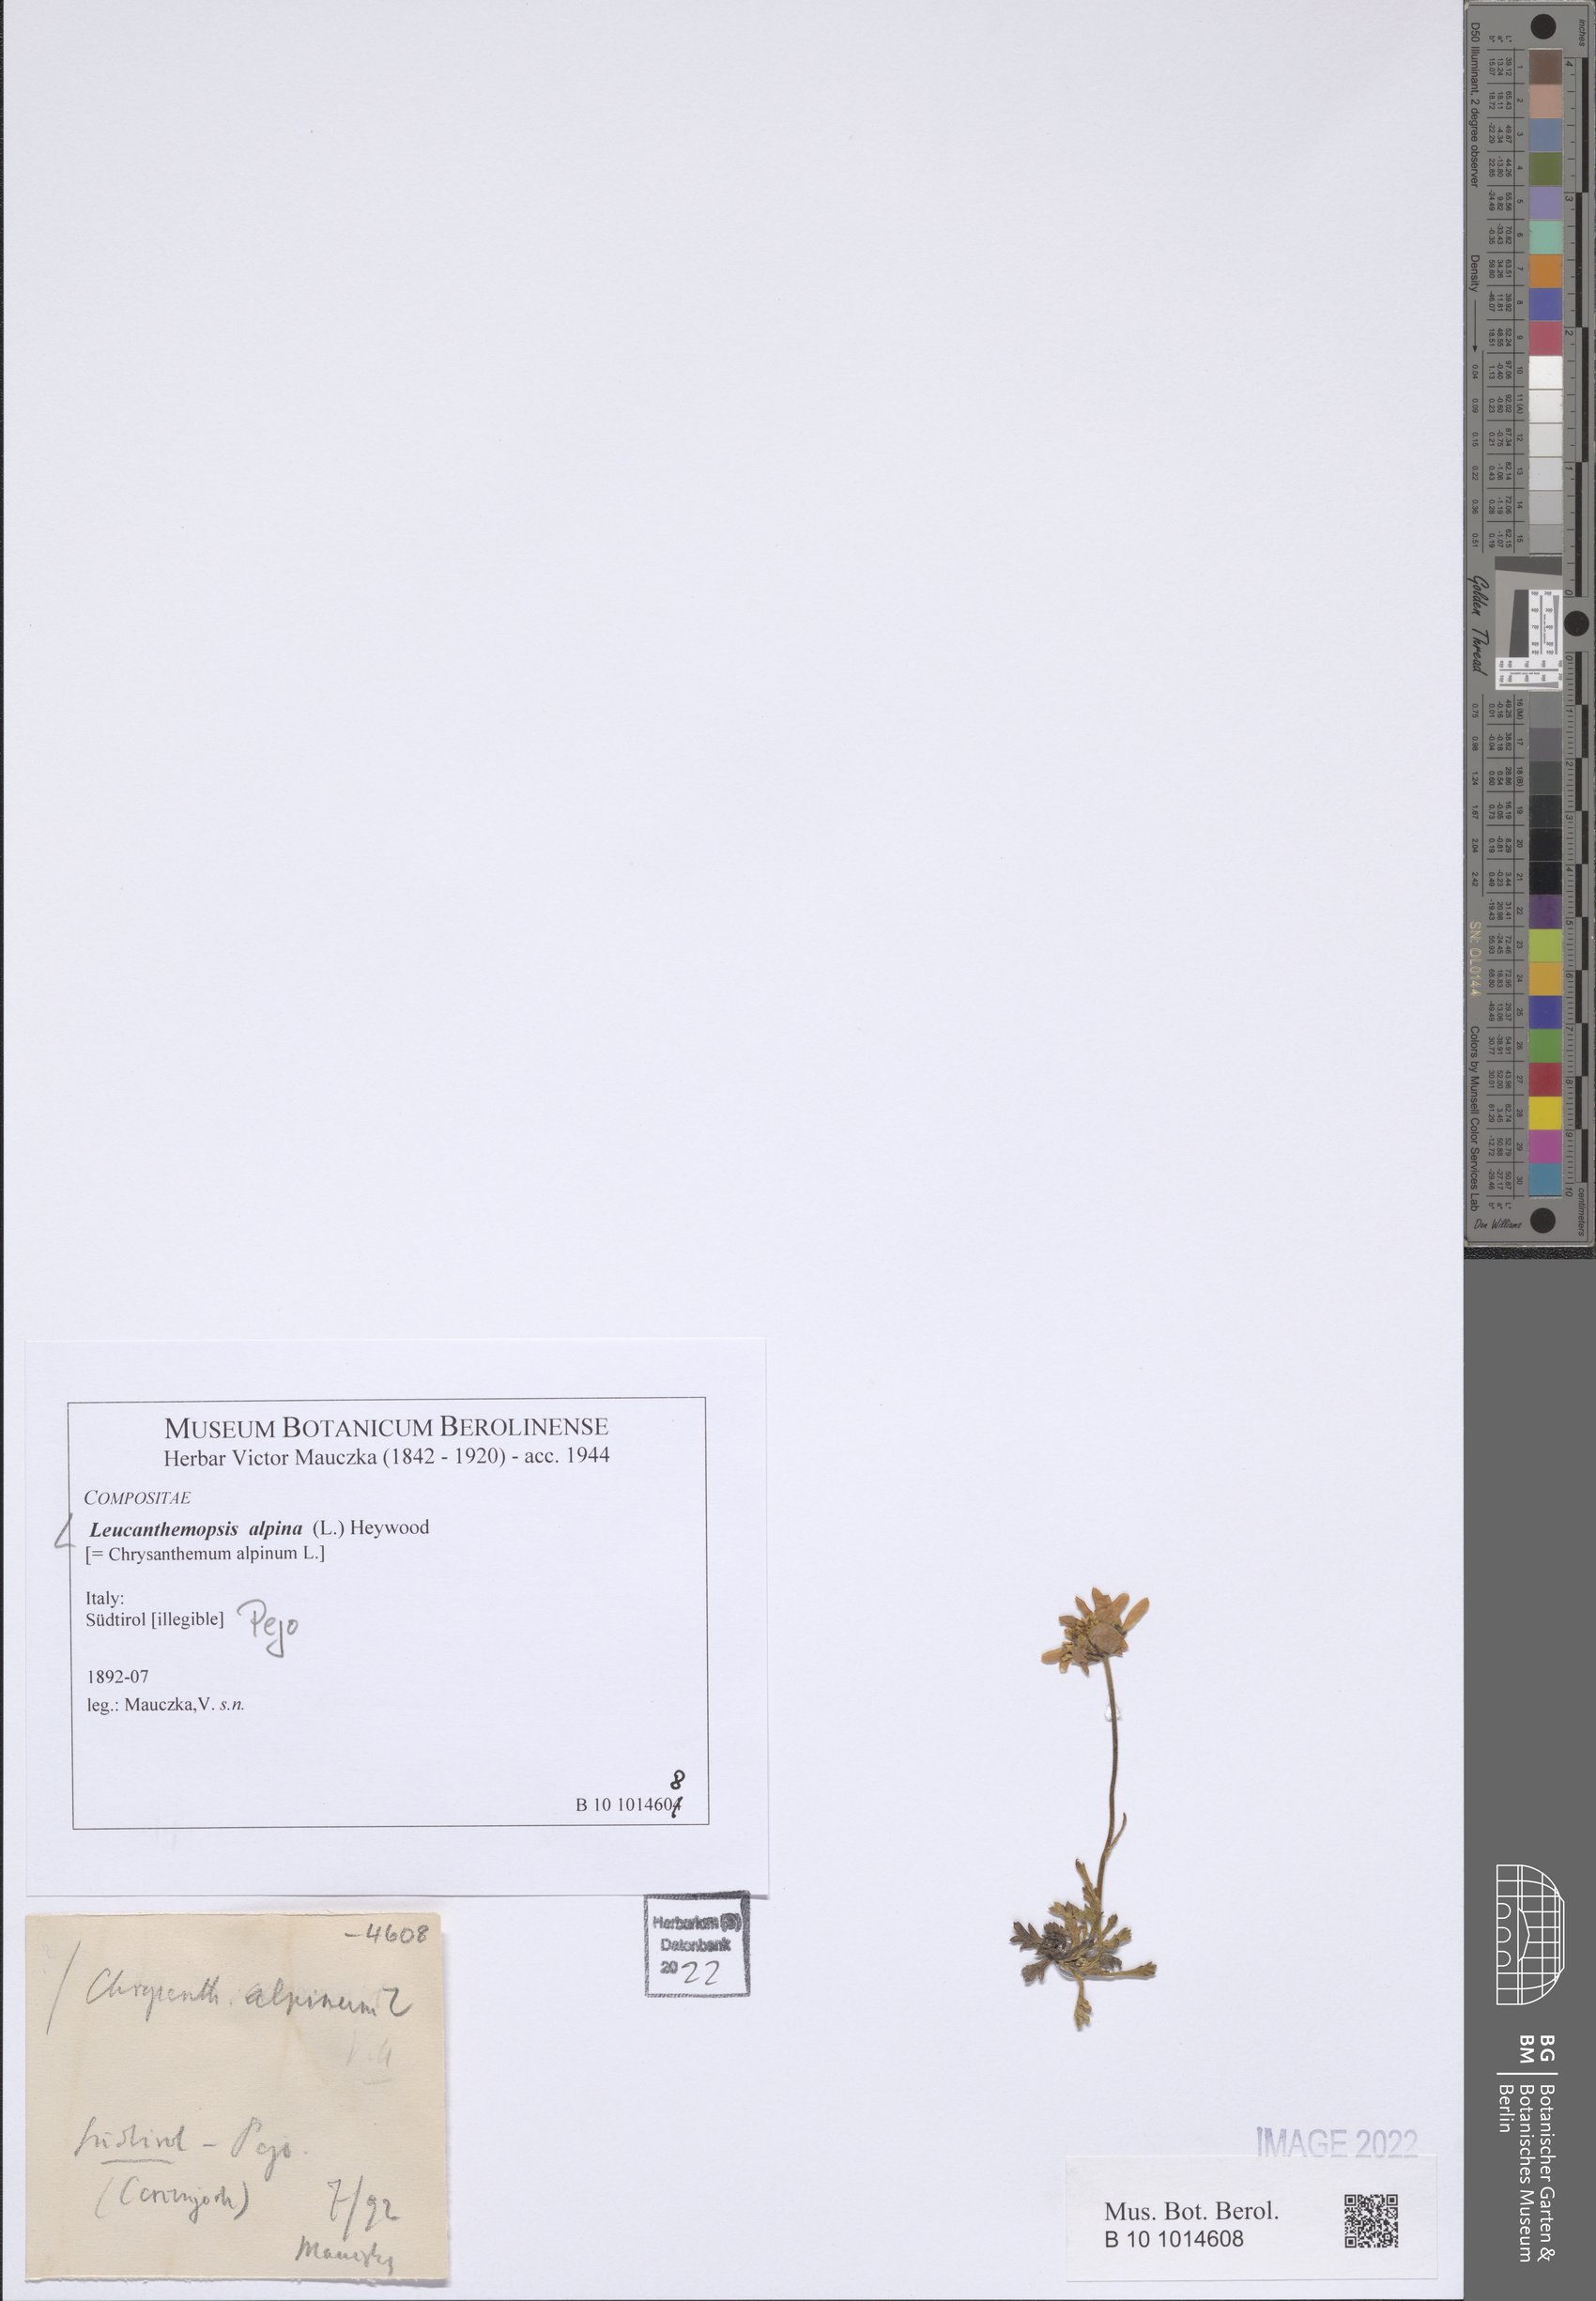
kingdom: Plantae
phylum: Tracheophyta
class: Magnoliopsida
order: Asterales
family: Asteraceae
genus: Leucanthemopsis
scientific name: Leucanthemopsis alpina
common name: Alpine moon daisy
